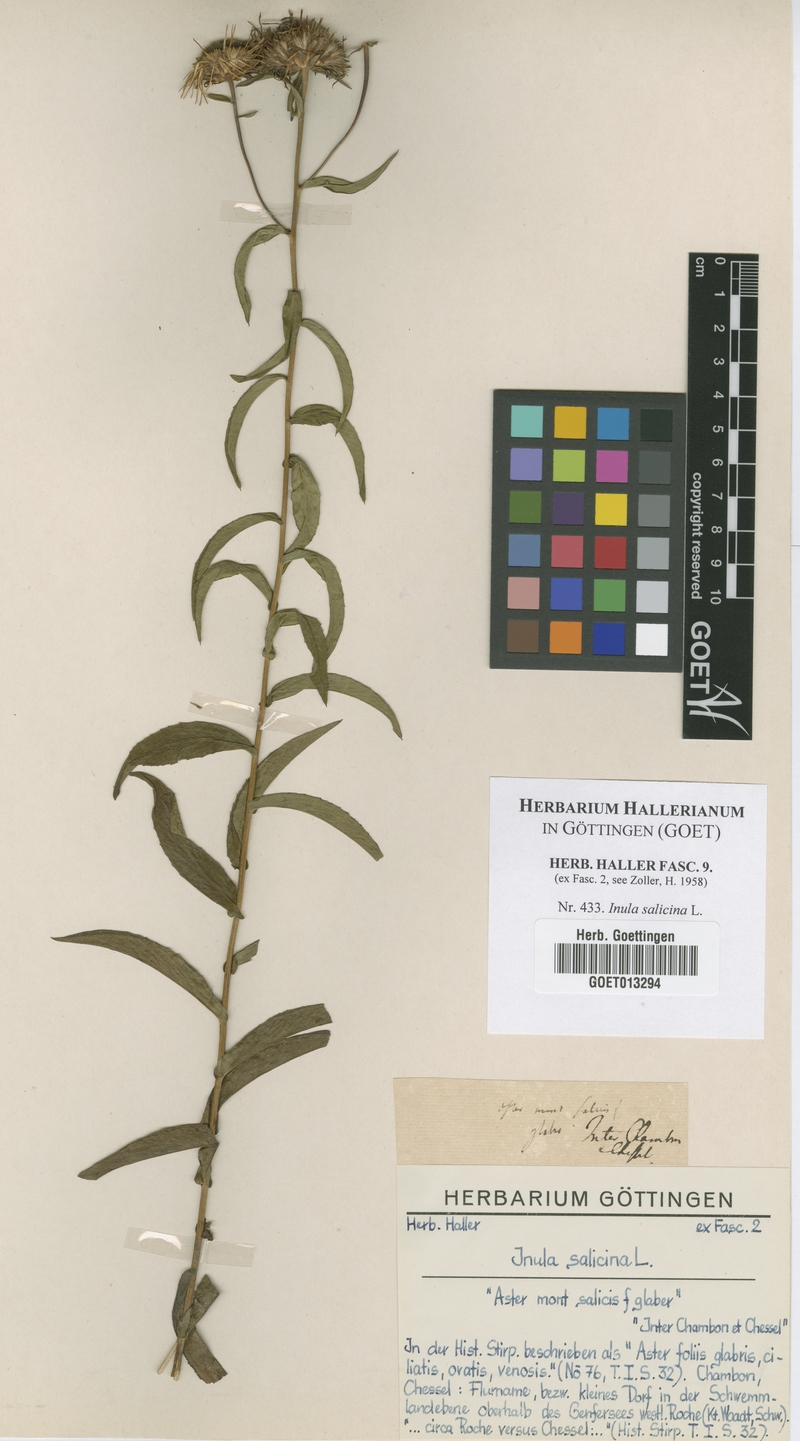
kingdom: Plantae
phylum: Tracheophyta
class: Magnoliopsida
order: Asterales
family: Asteraceae
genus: Pentanema
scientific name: Pentanema salicinum
